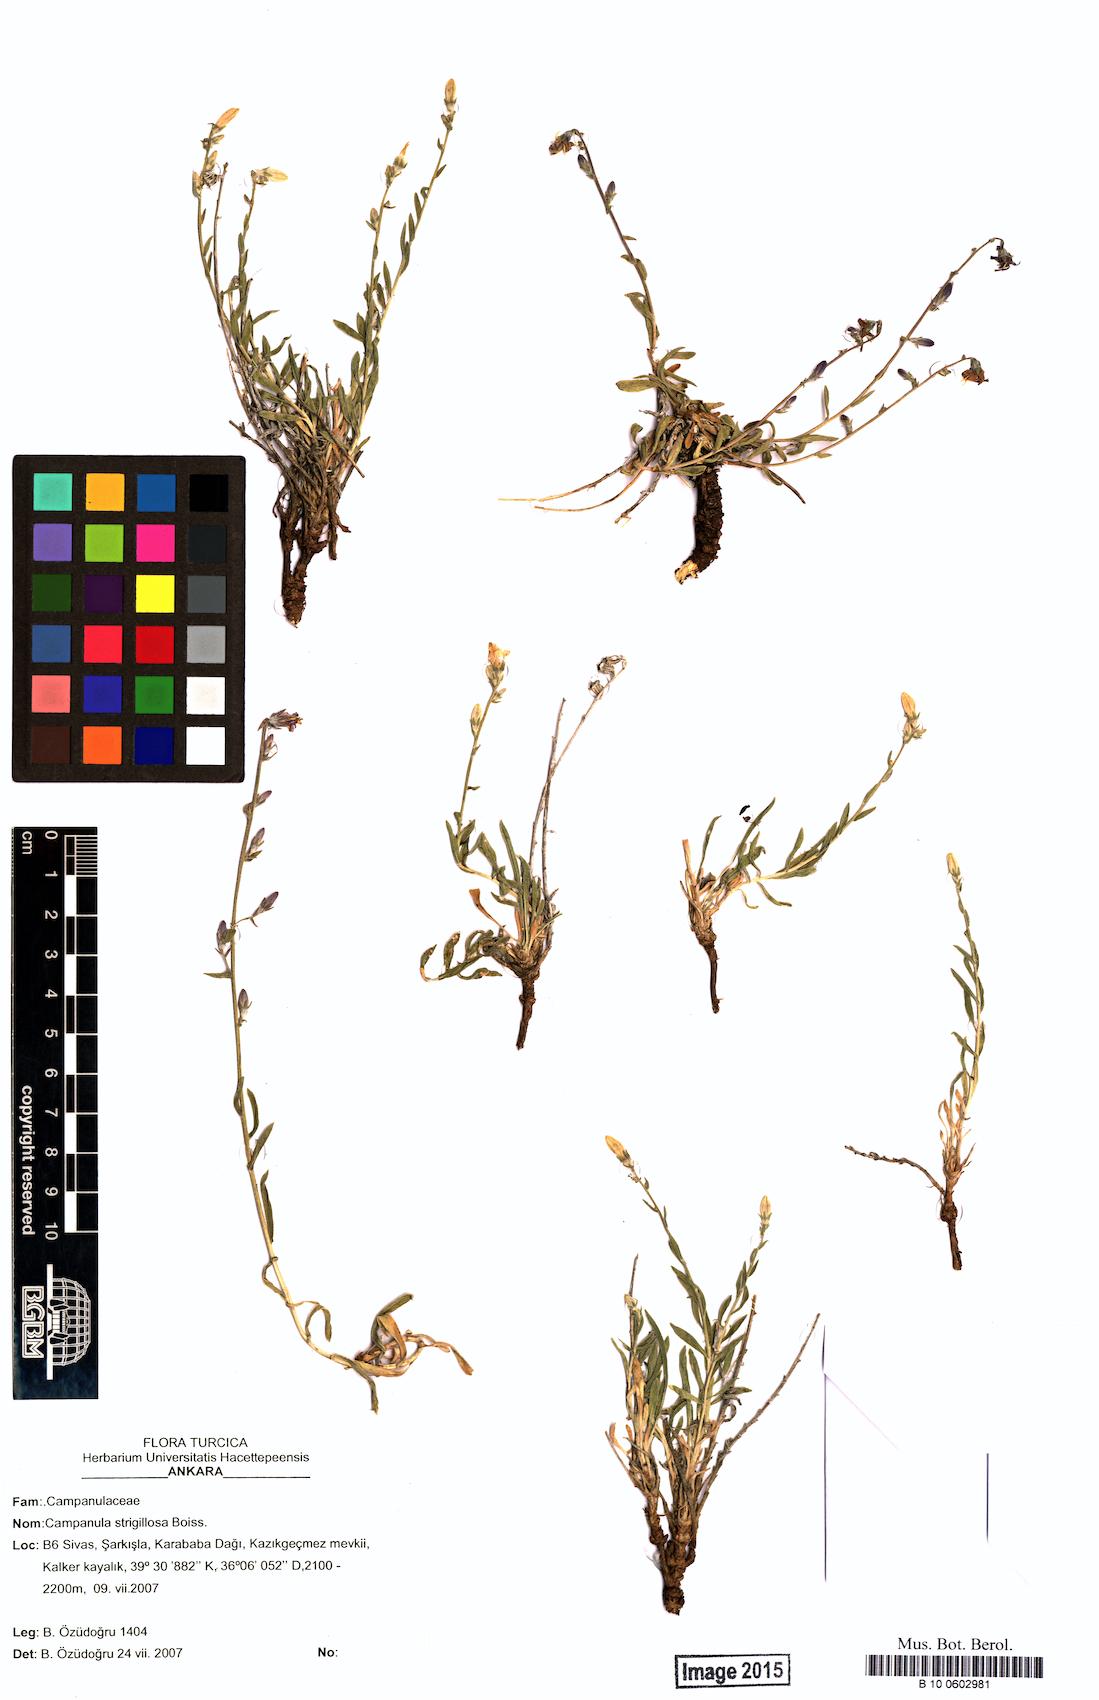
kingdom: Plantae
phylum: Tracheophyta
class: Magnoliopsida
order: Asterales
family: Campanulaceae
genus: Campanula
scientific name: Campanula strigillosa
